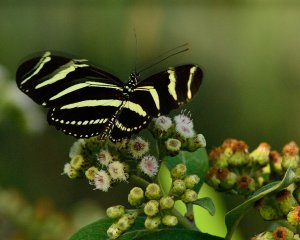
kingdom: Animalia
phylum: Arthropoda
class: Insecta
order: Lepidoptera
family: Nymphalidae
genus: Heliconius
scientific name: Heliconius charithonia
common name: Zebra Longwing
